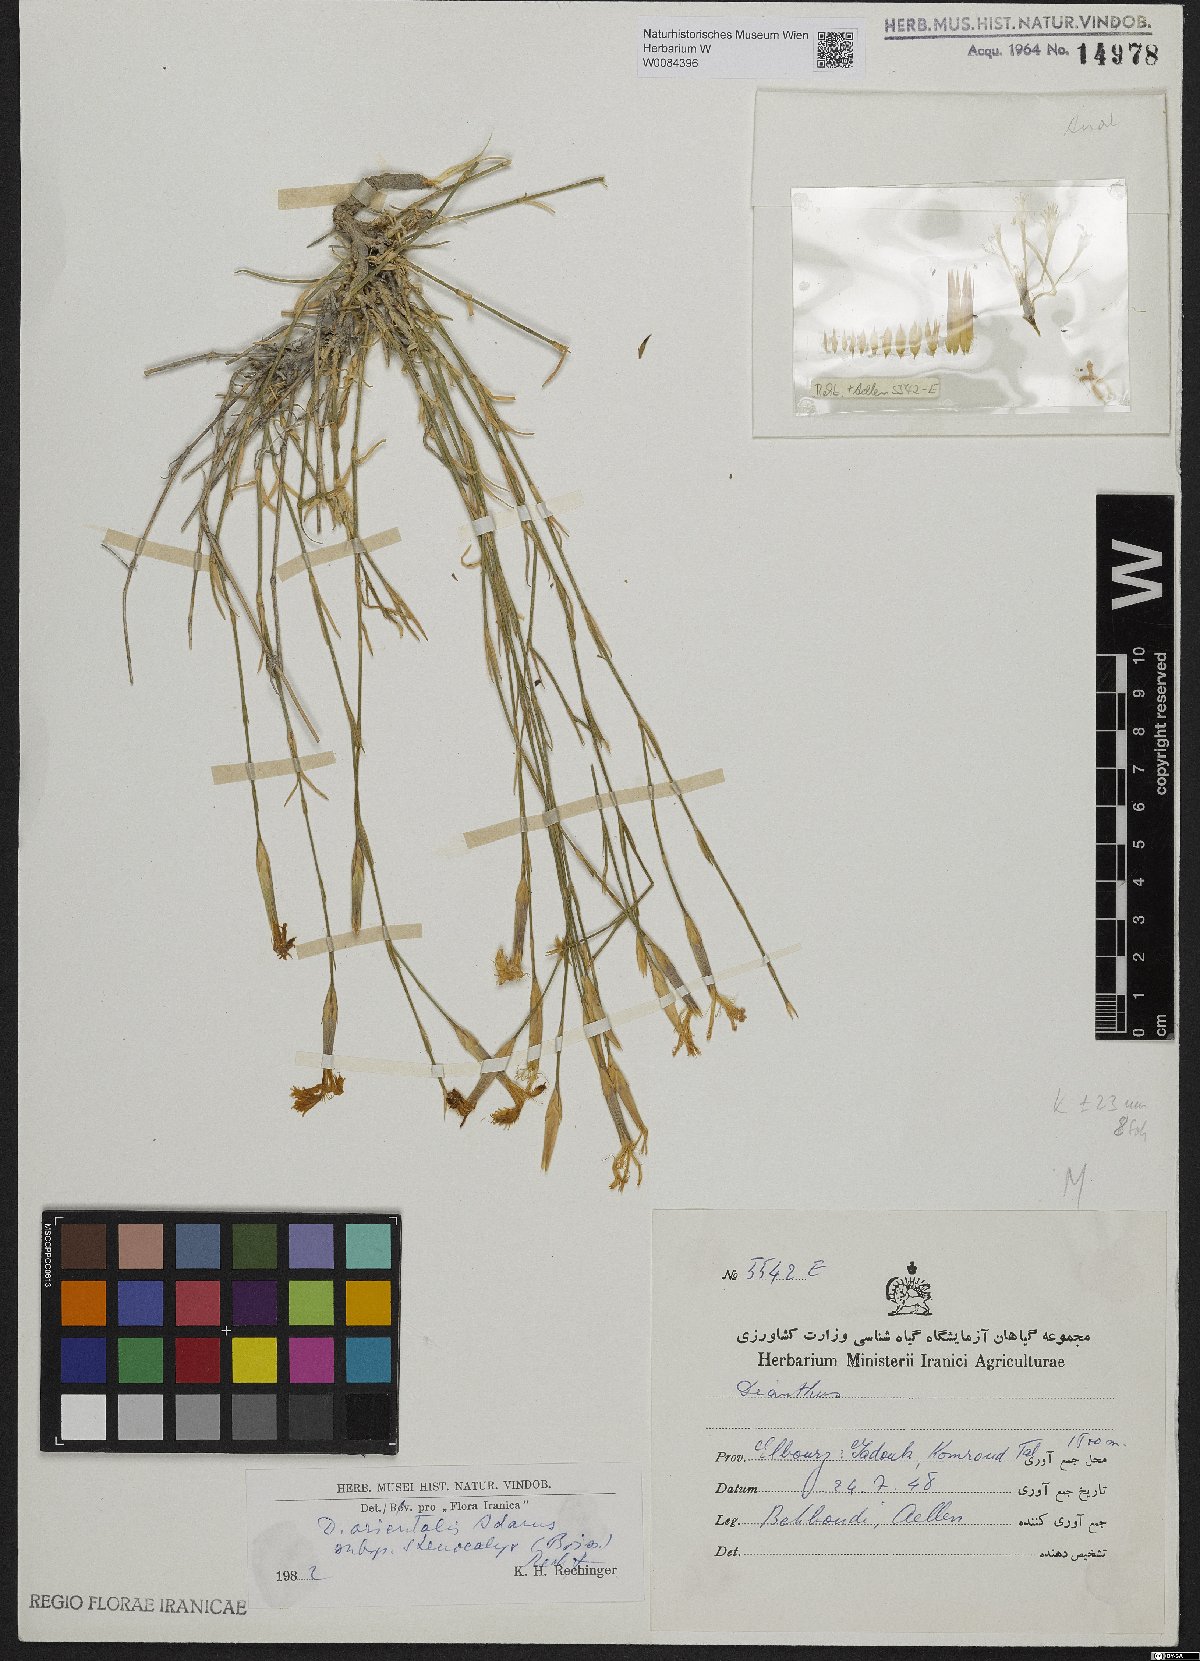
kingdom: Plantae
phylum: Tracheophyta
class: Magnoliopsida
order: Caryophyllales
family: Caryophyllaceae
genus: Dianthus
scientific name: Dianthus orientalis
